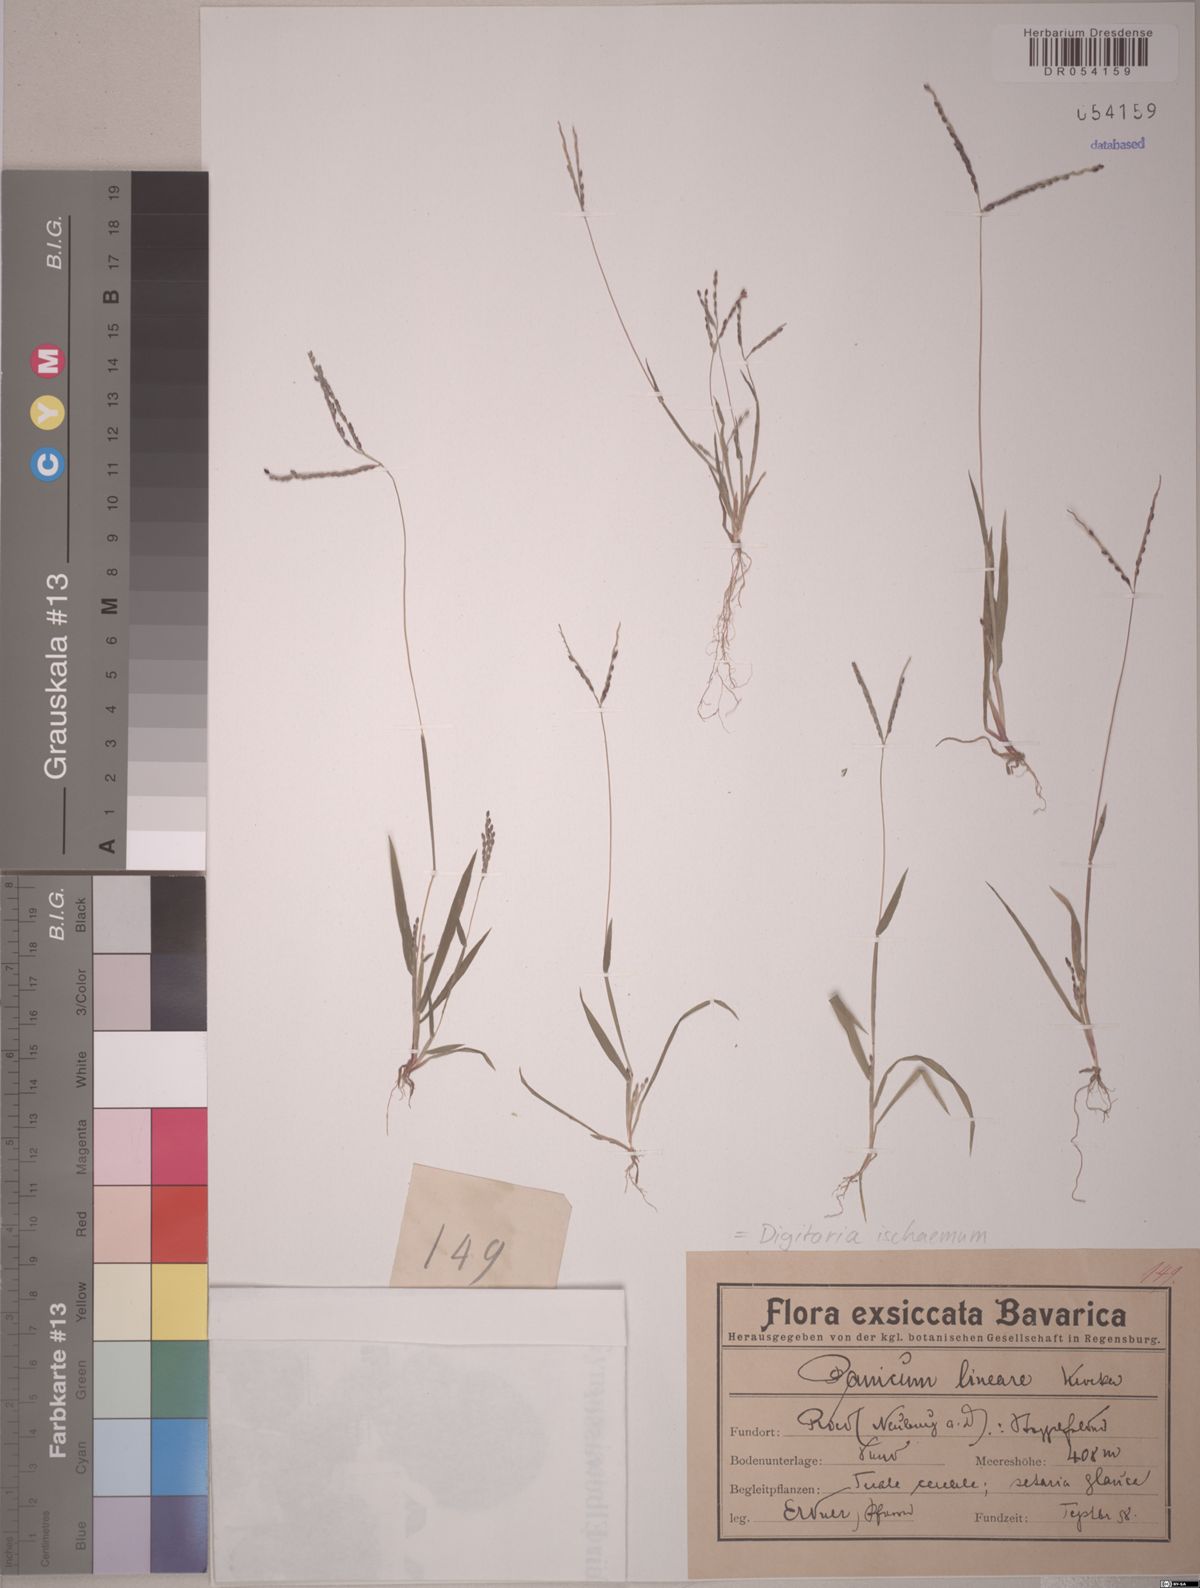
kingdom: Plantae
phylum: Tracheophyta
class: Liliopsida
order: Poales
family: Poaceae
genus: Digitaria
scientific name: Digitaria ischaemum
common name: Smooth crabgrass
